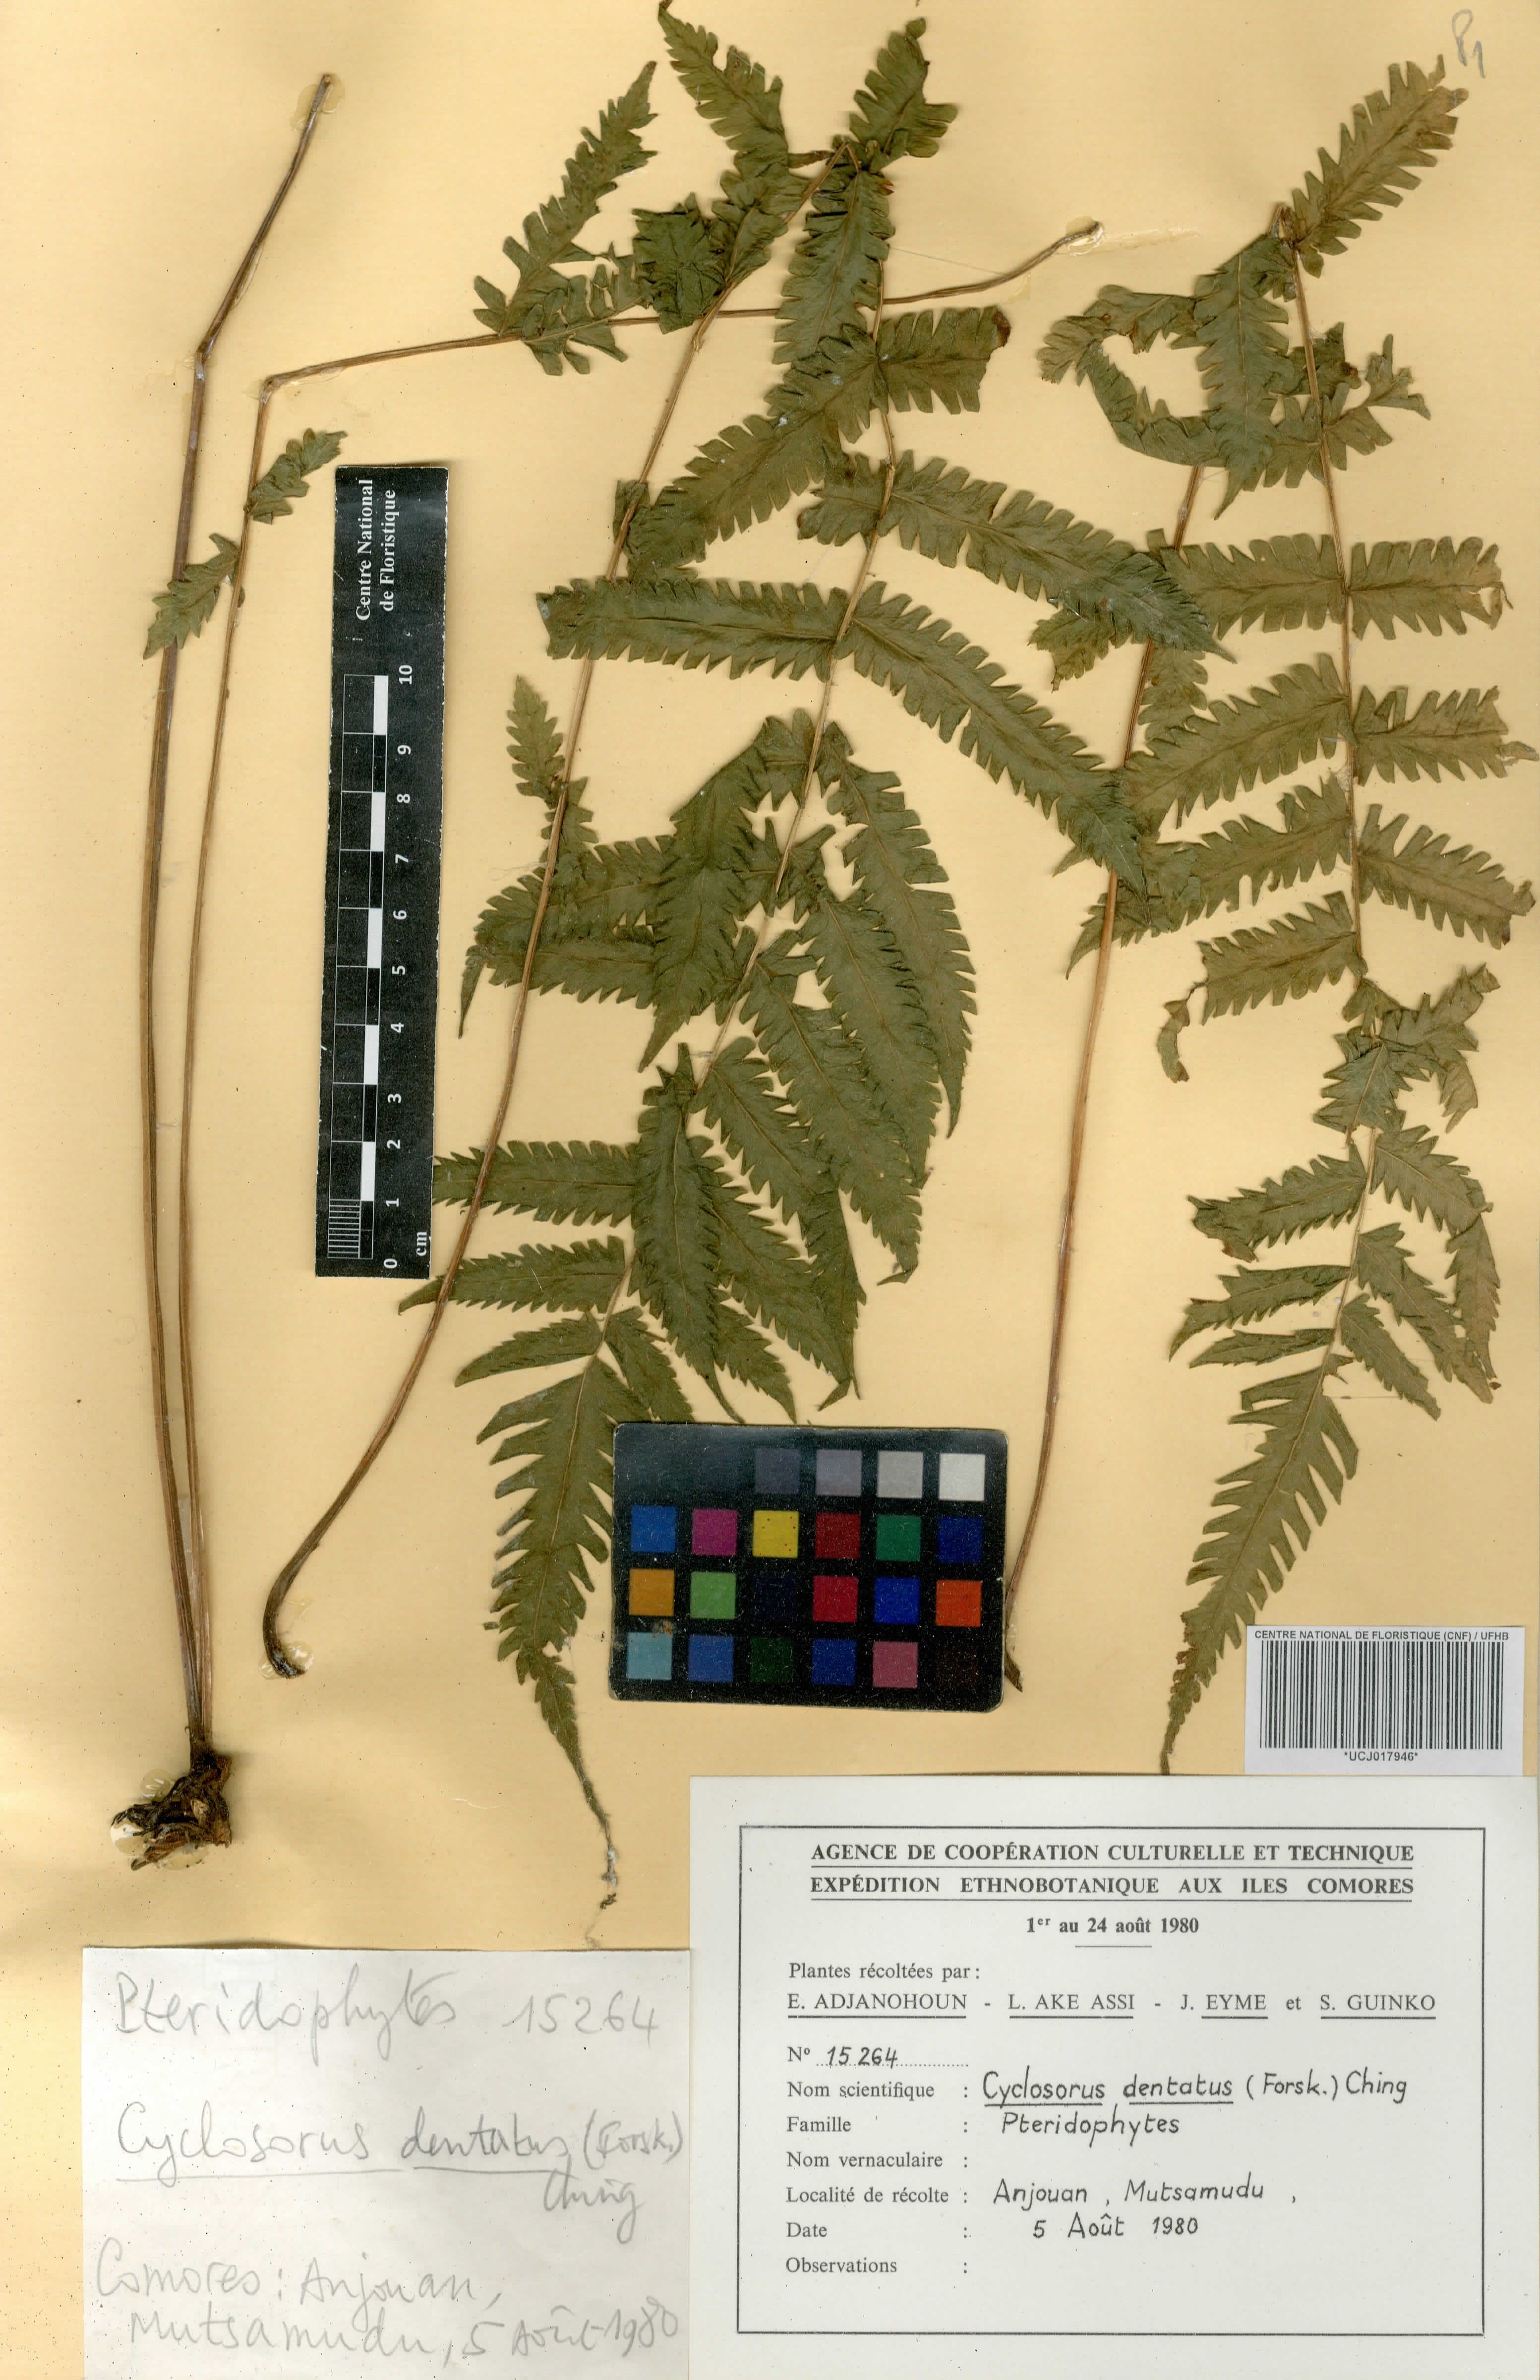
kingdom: Plantae
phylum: Tracheophyta
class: Polypodiopsida
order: Polypodiales
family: Thelypteridaceae
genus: Christella
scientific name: Christella dentata
